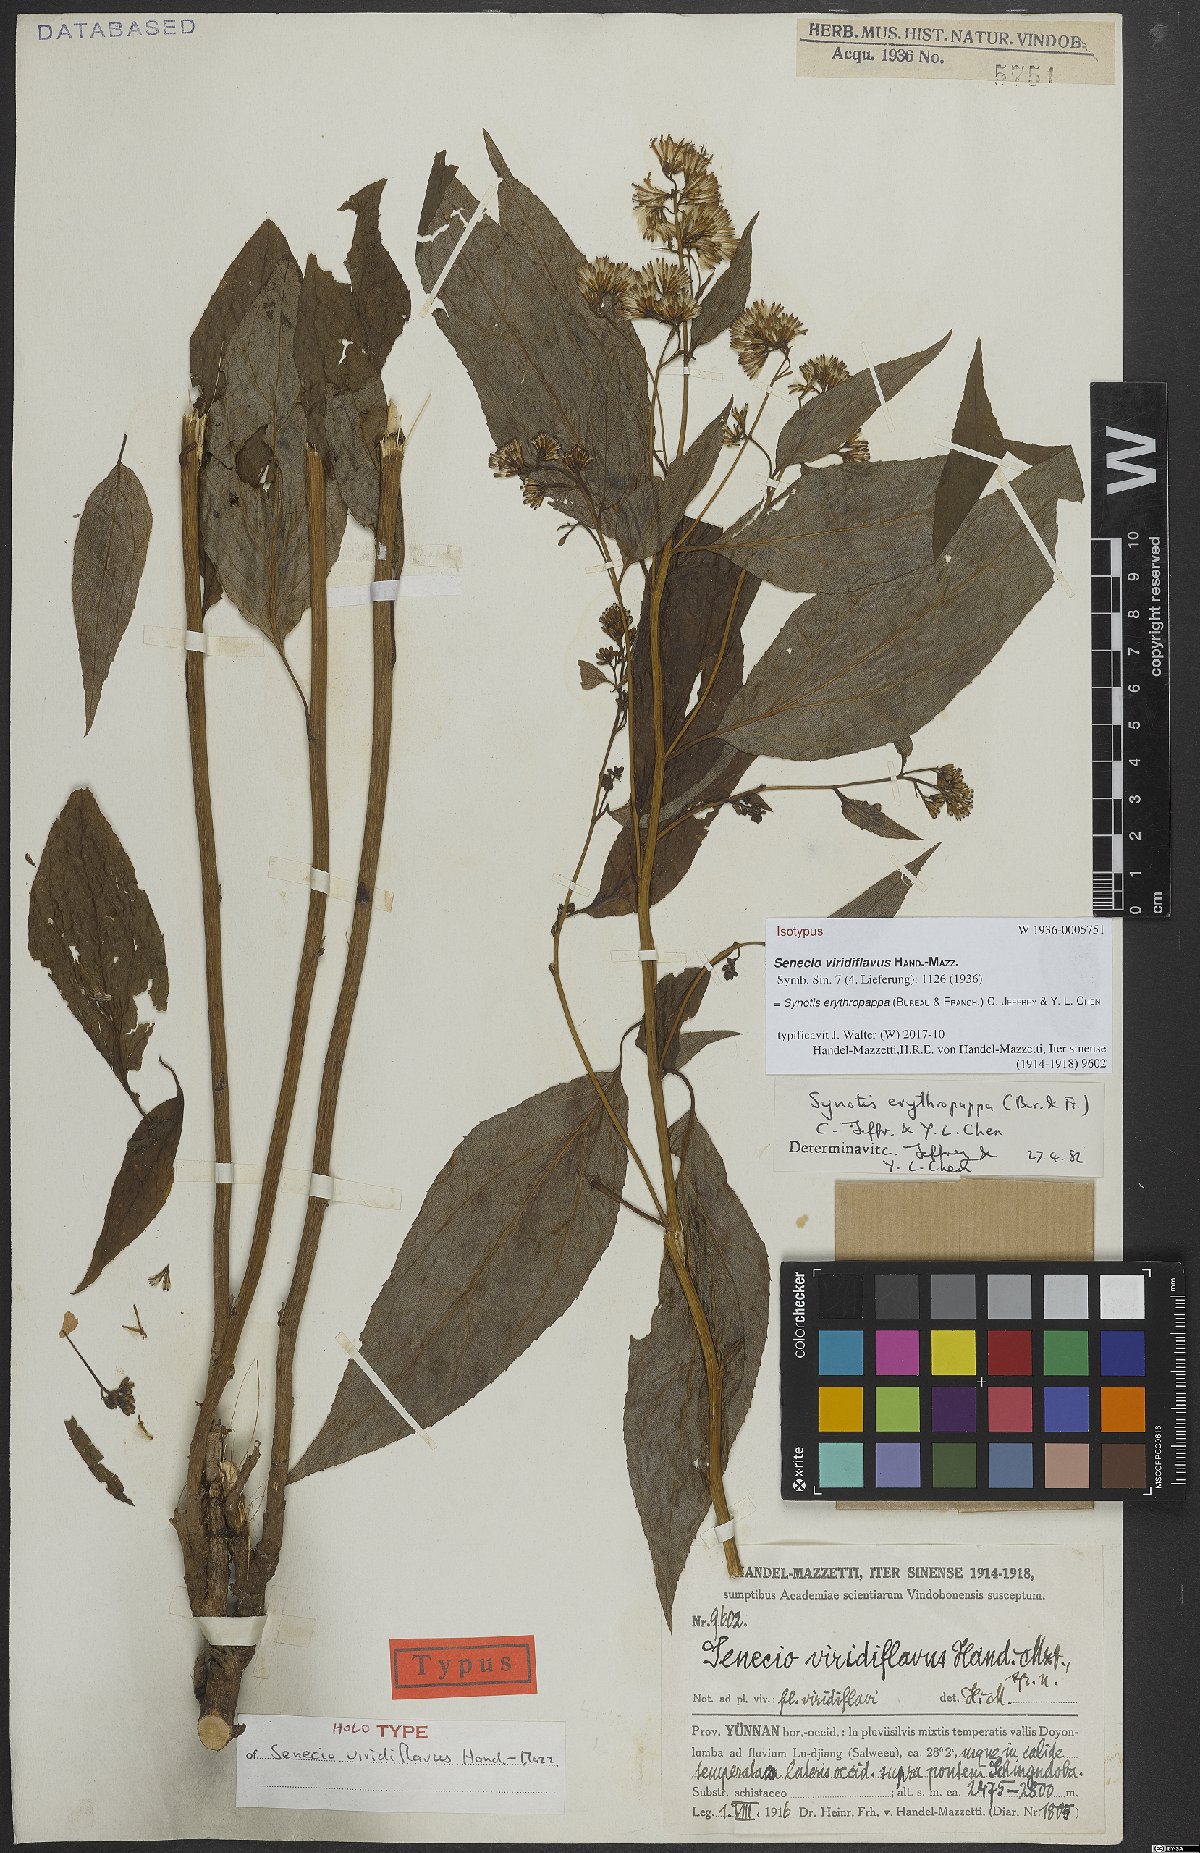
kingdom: Plantae
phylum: Tracheophyta
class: Magnoliopsida
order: Asterales
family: Asteraceae
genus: Synotis
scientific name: Synotis erythropappa
